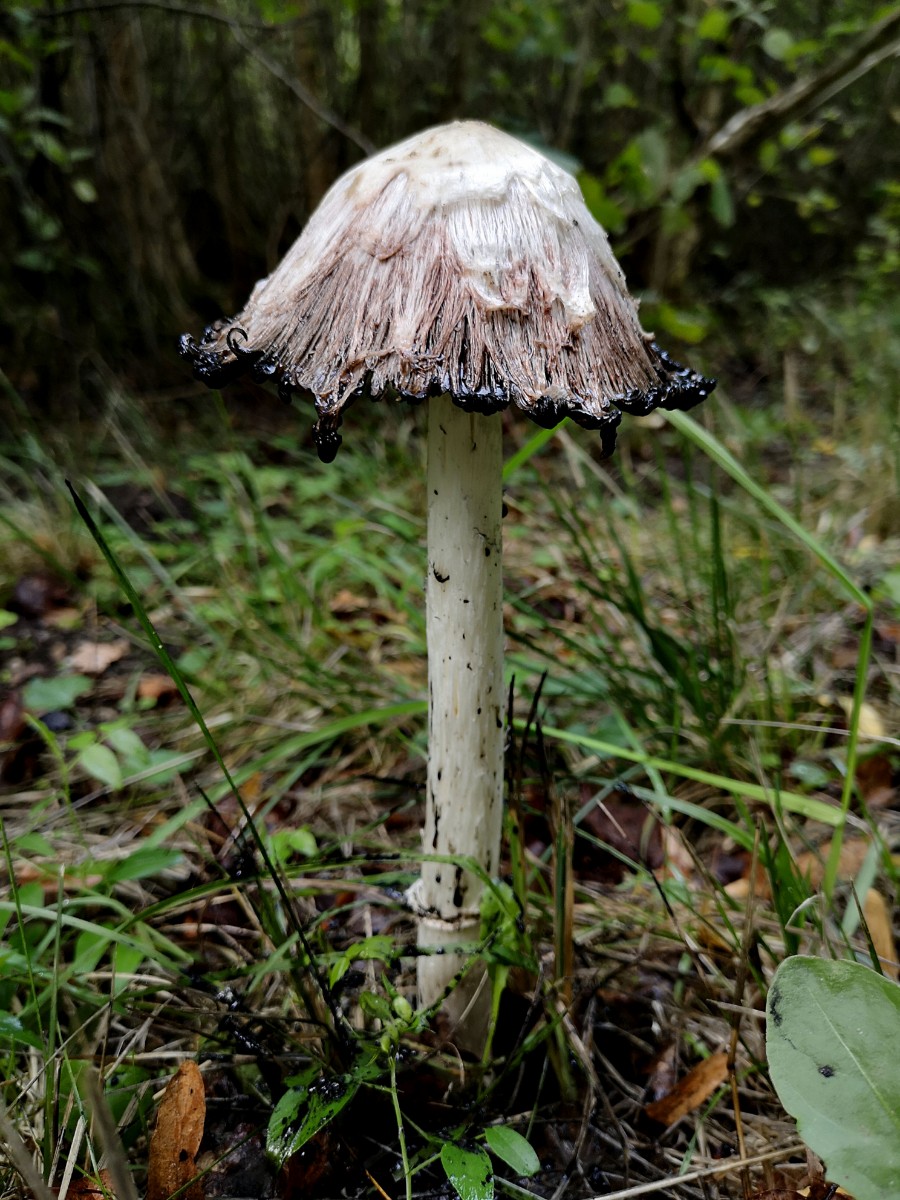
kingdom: Fungi
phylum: Basidiomycota
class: Agaricomycetes
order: Agaricales
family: Agaricaceae
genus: Coprinus
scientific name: Coprinus comatus
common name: stor parykhat
